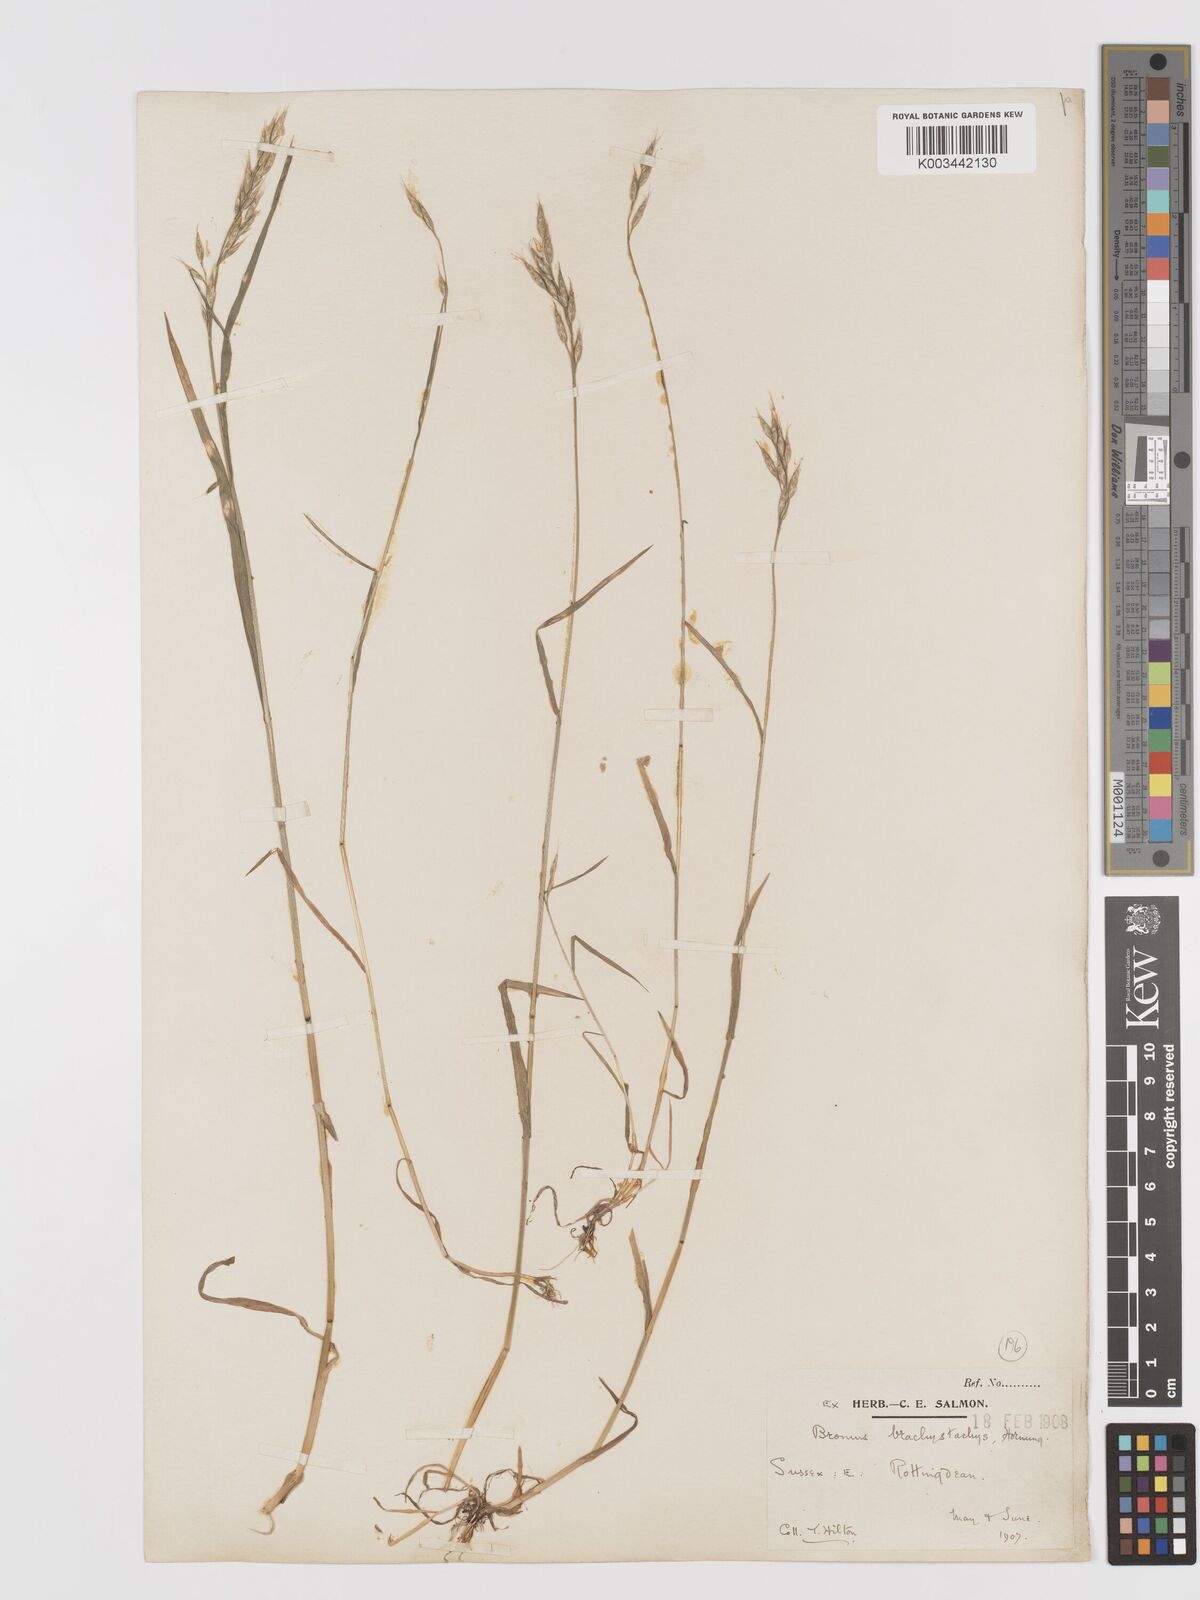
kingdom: Plantae
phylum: Tracheophyta
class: Liliopsida
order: Poales
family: Poaceae
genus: Bromus
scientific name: Bromus lepidus
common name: Slender soft-brome
